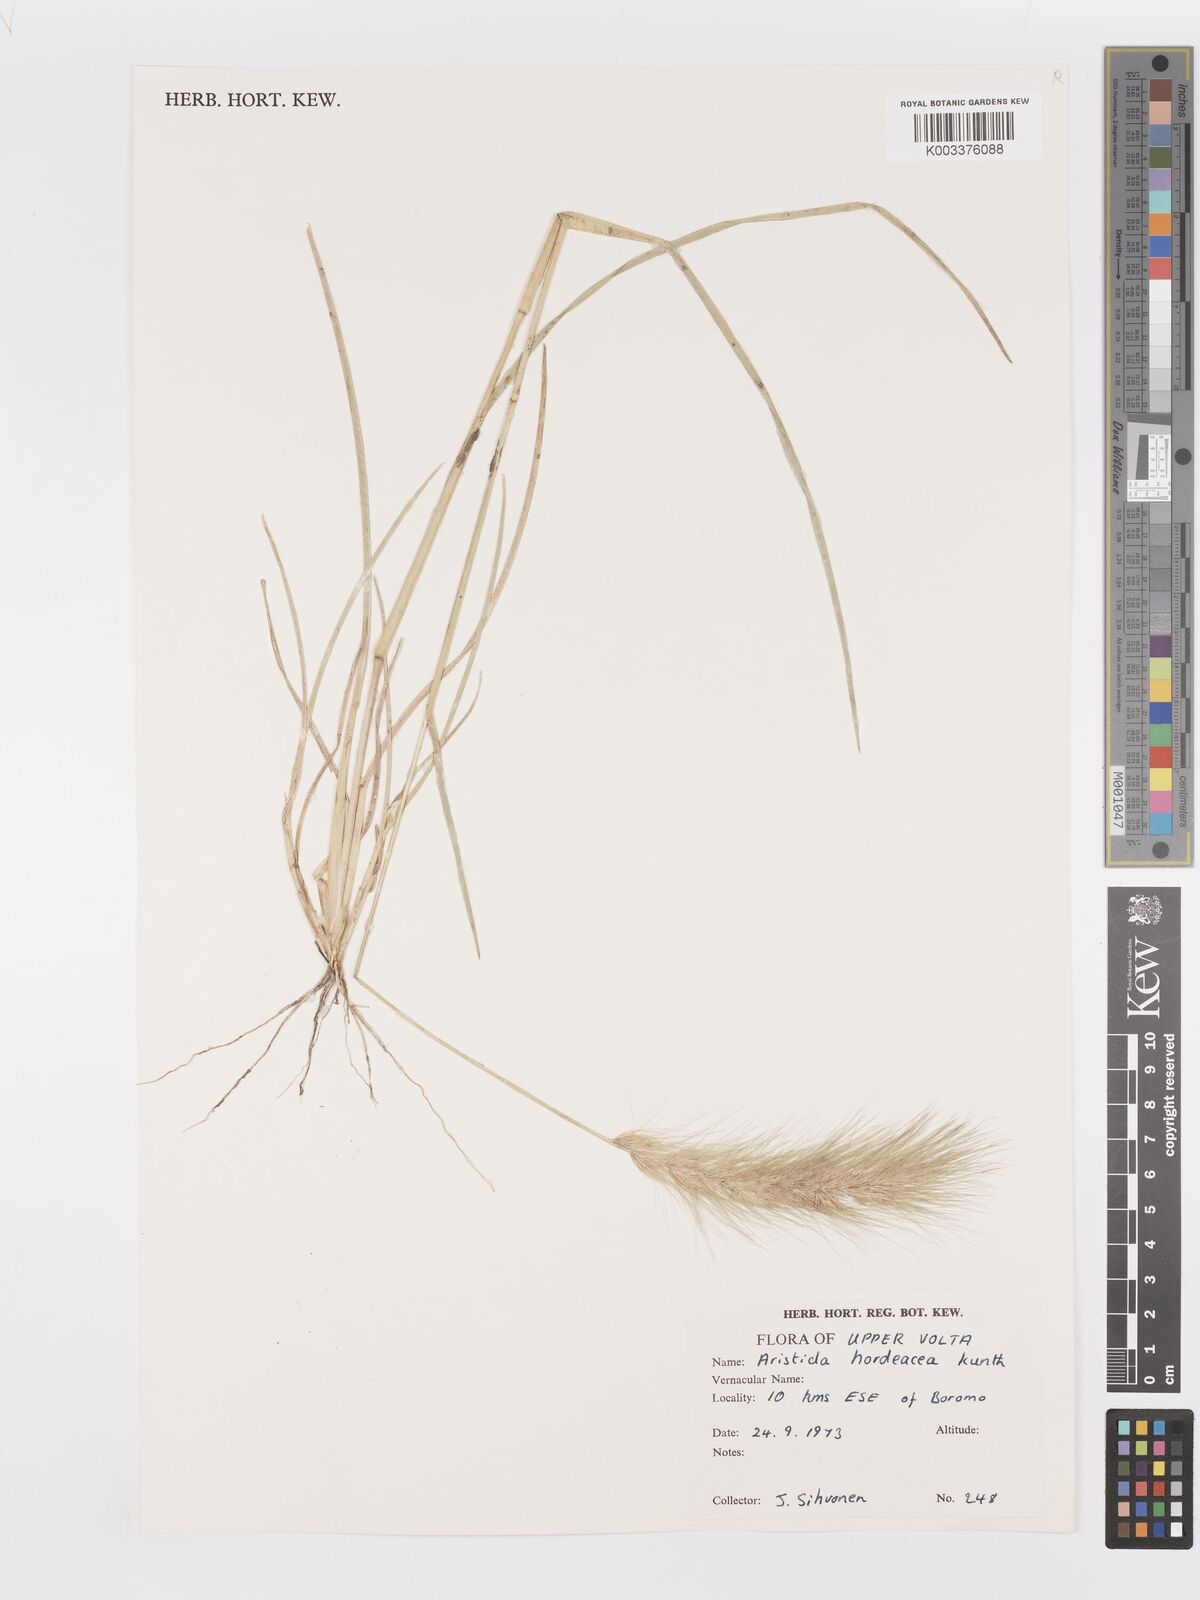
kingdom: Plantae
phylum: Tracheophyta
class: Liliopsida
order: Poales
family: Poaceae
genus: Aristida
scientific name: Aristida hordeacea
